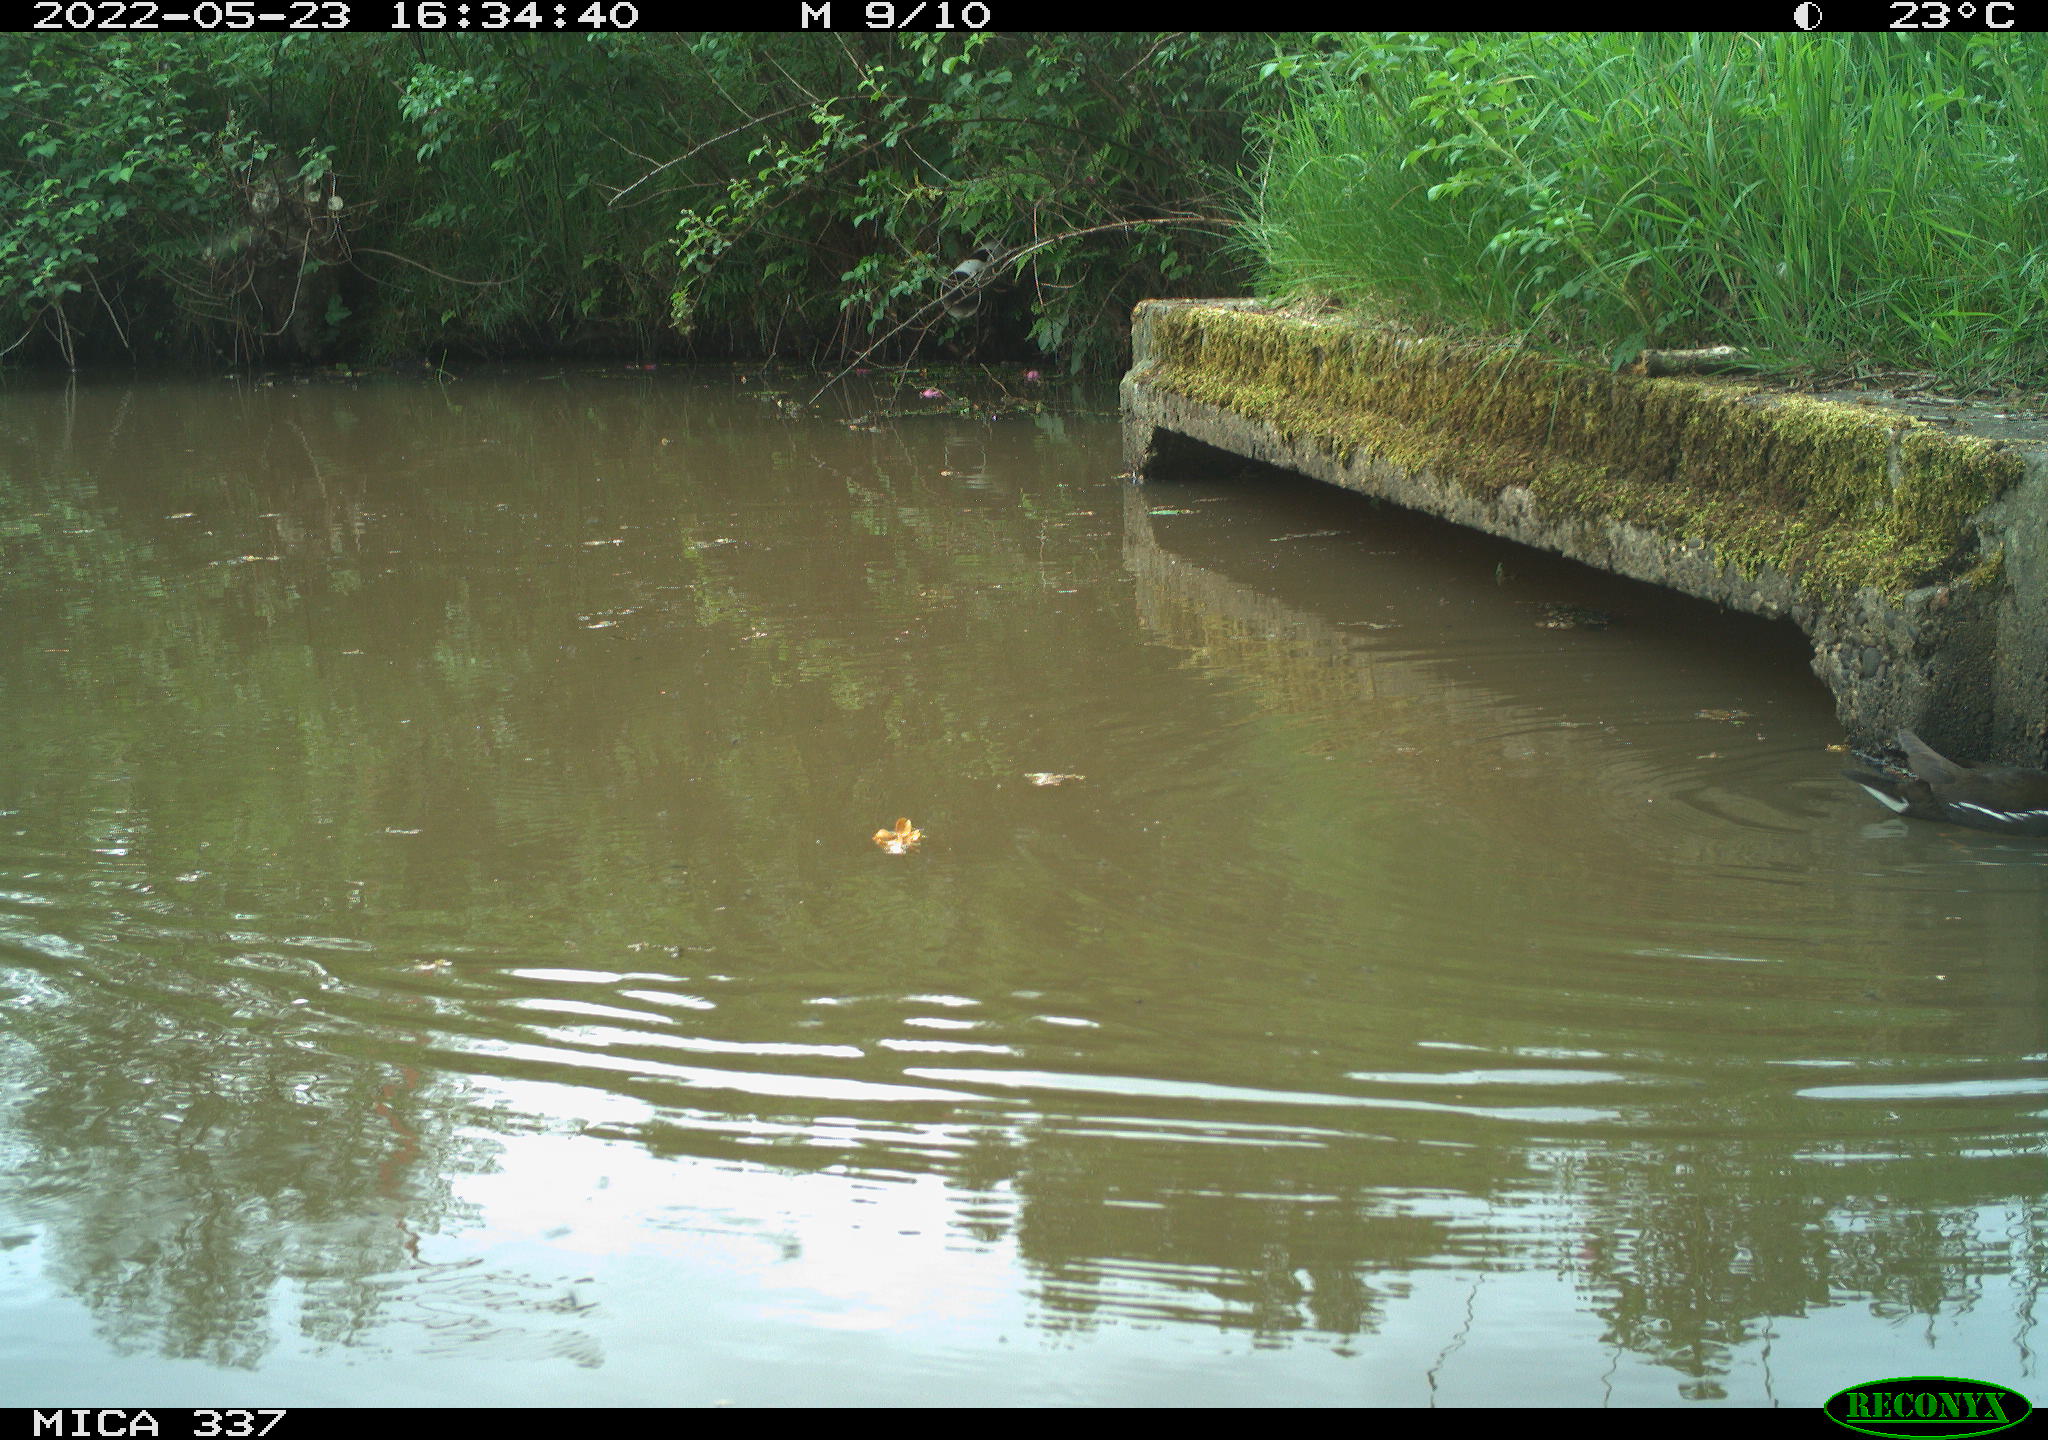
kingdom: Animalia
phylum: Chordata
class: Aves
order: Gruiformes
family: Rallidae
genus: Gallinula
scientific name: Gallinula chloropus
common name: Common moorhen
